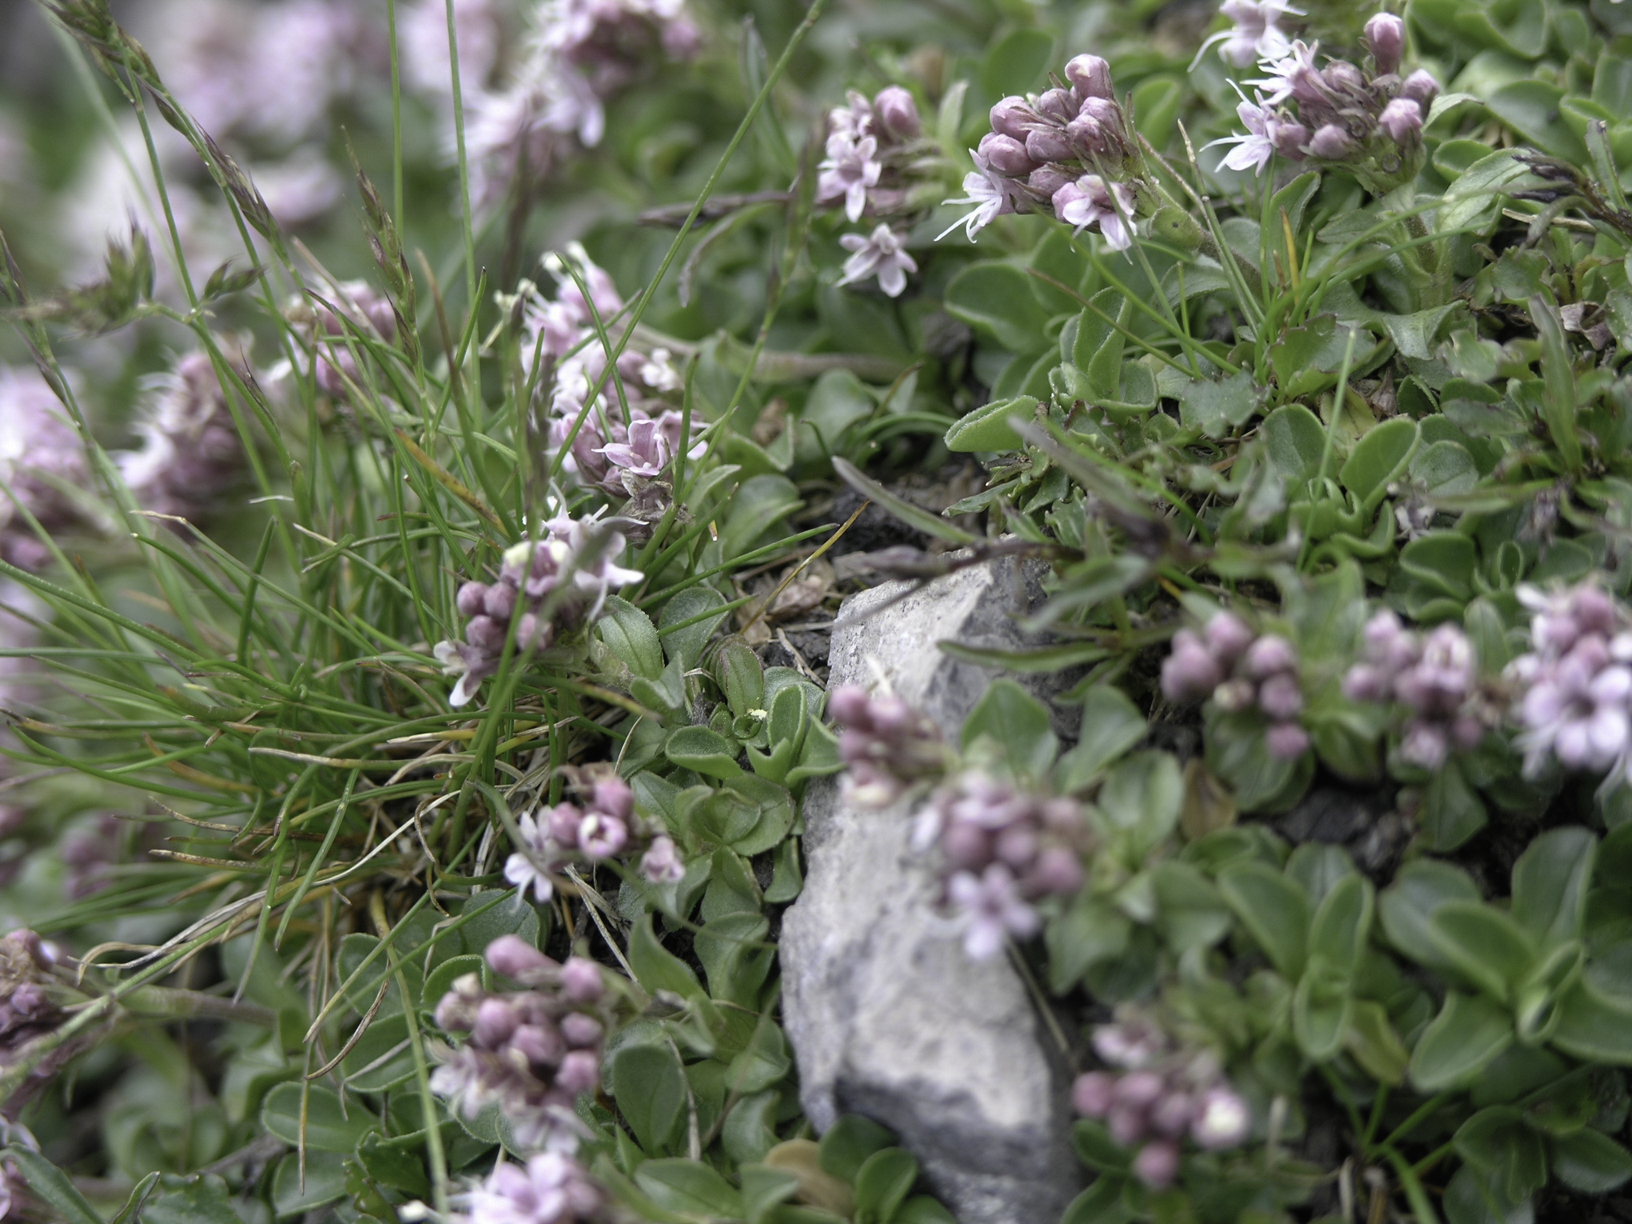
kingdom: Plantae
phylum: Tracheophyta
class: Magnoliopsida
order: Dipsacales
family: Caprifoliaceae
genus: Valeriana
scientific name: Valeriana supina
